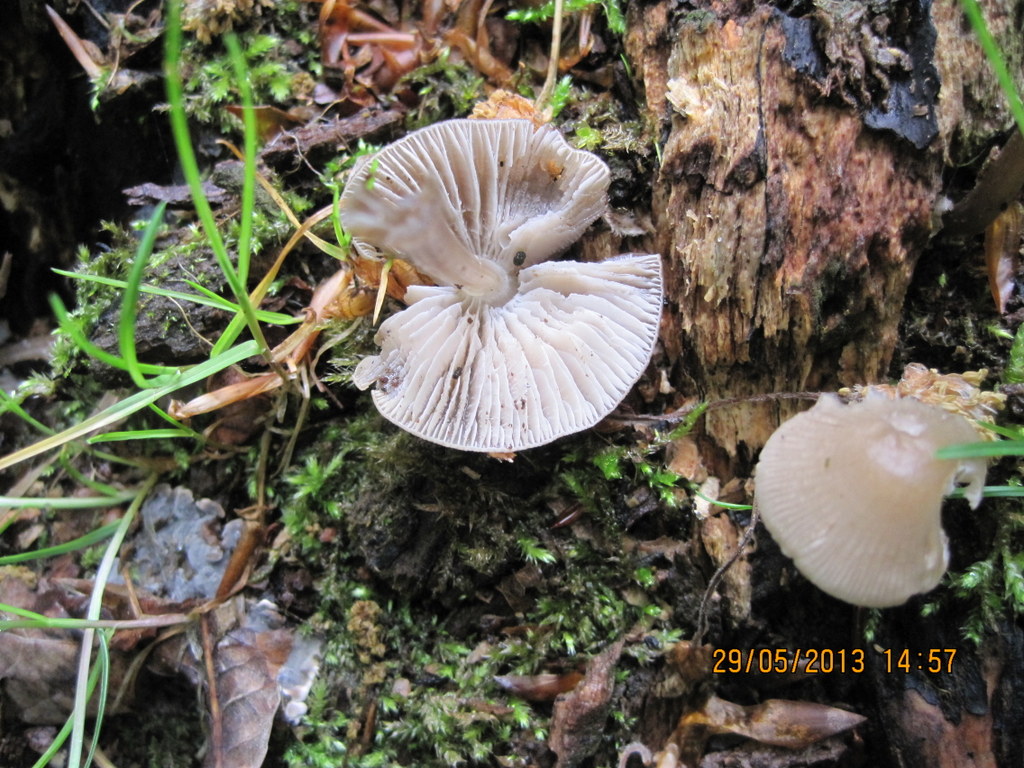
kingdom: Fungi
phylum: Basidiomycota
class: Agaricomycetes
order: Agaricales
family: Mycenaceae
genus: Mycena
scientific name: Mycena galericulata
